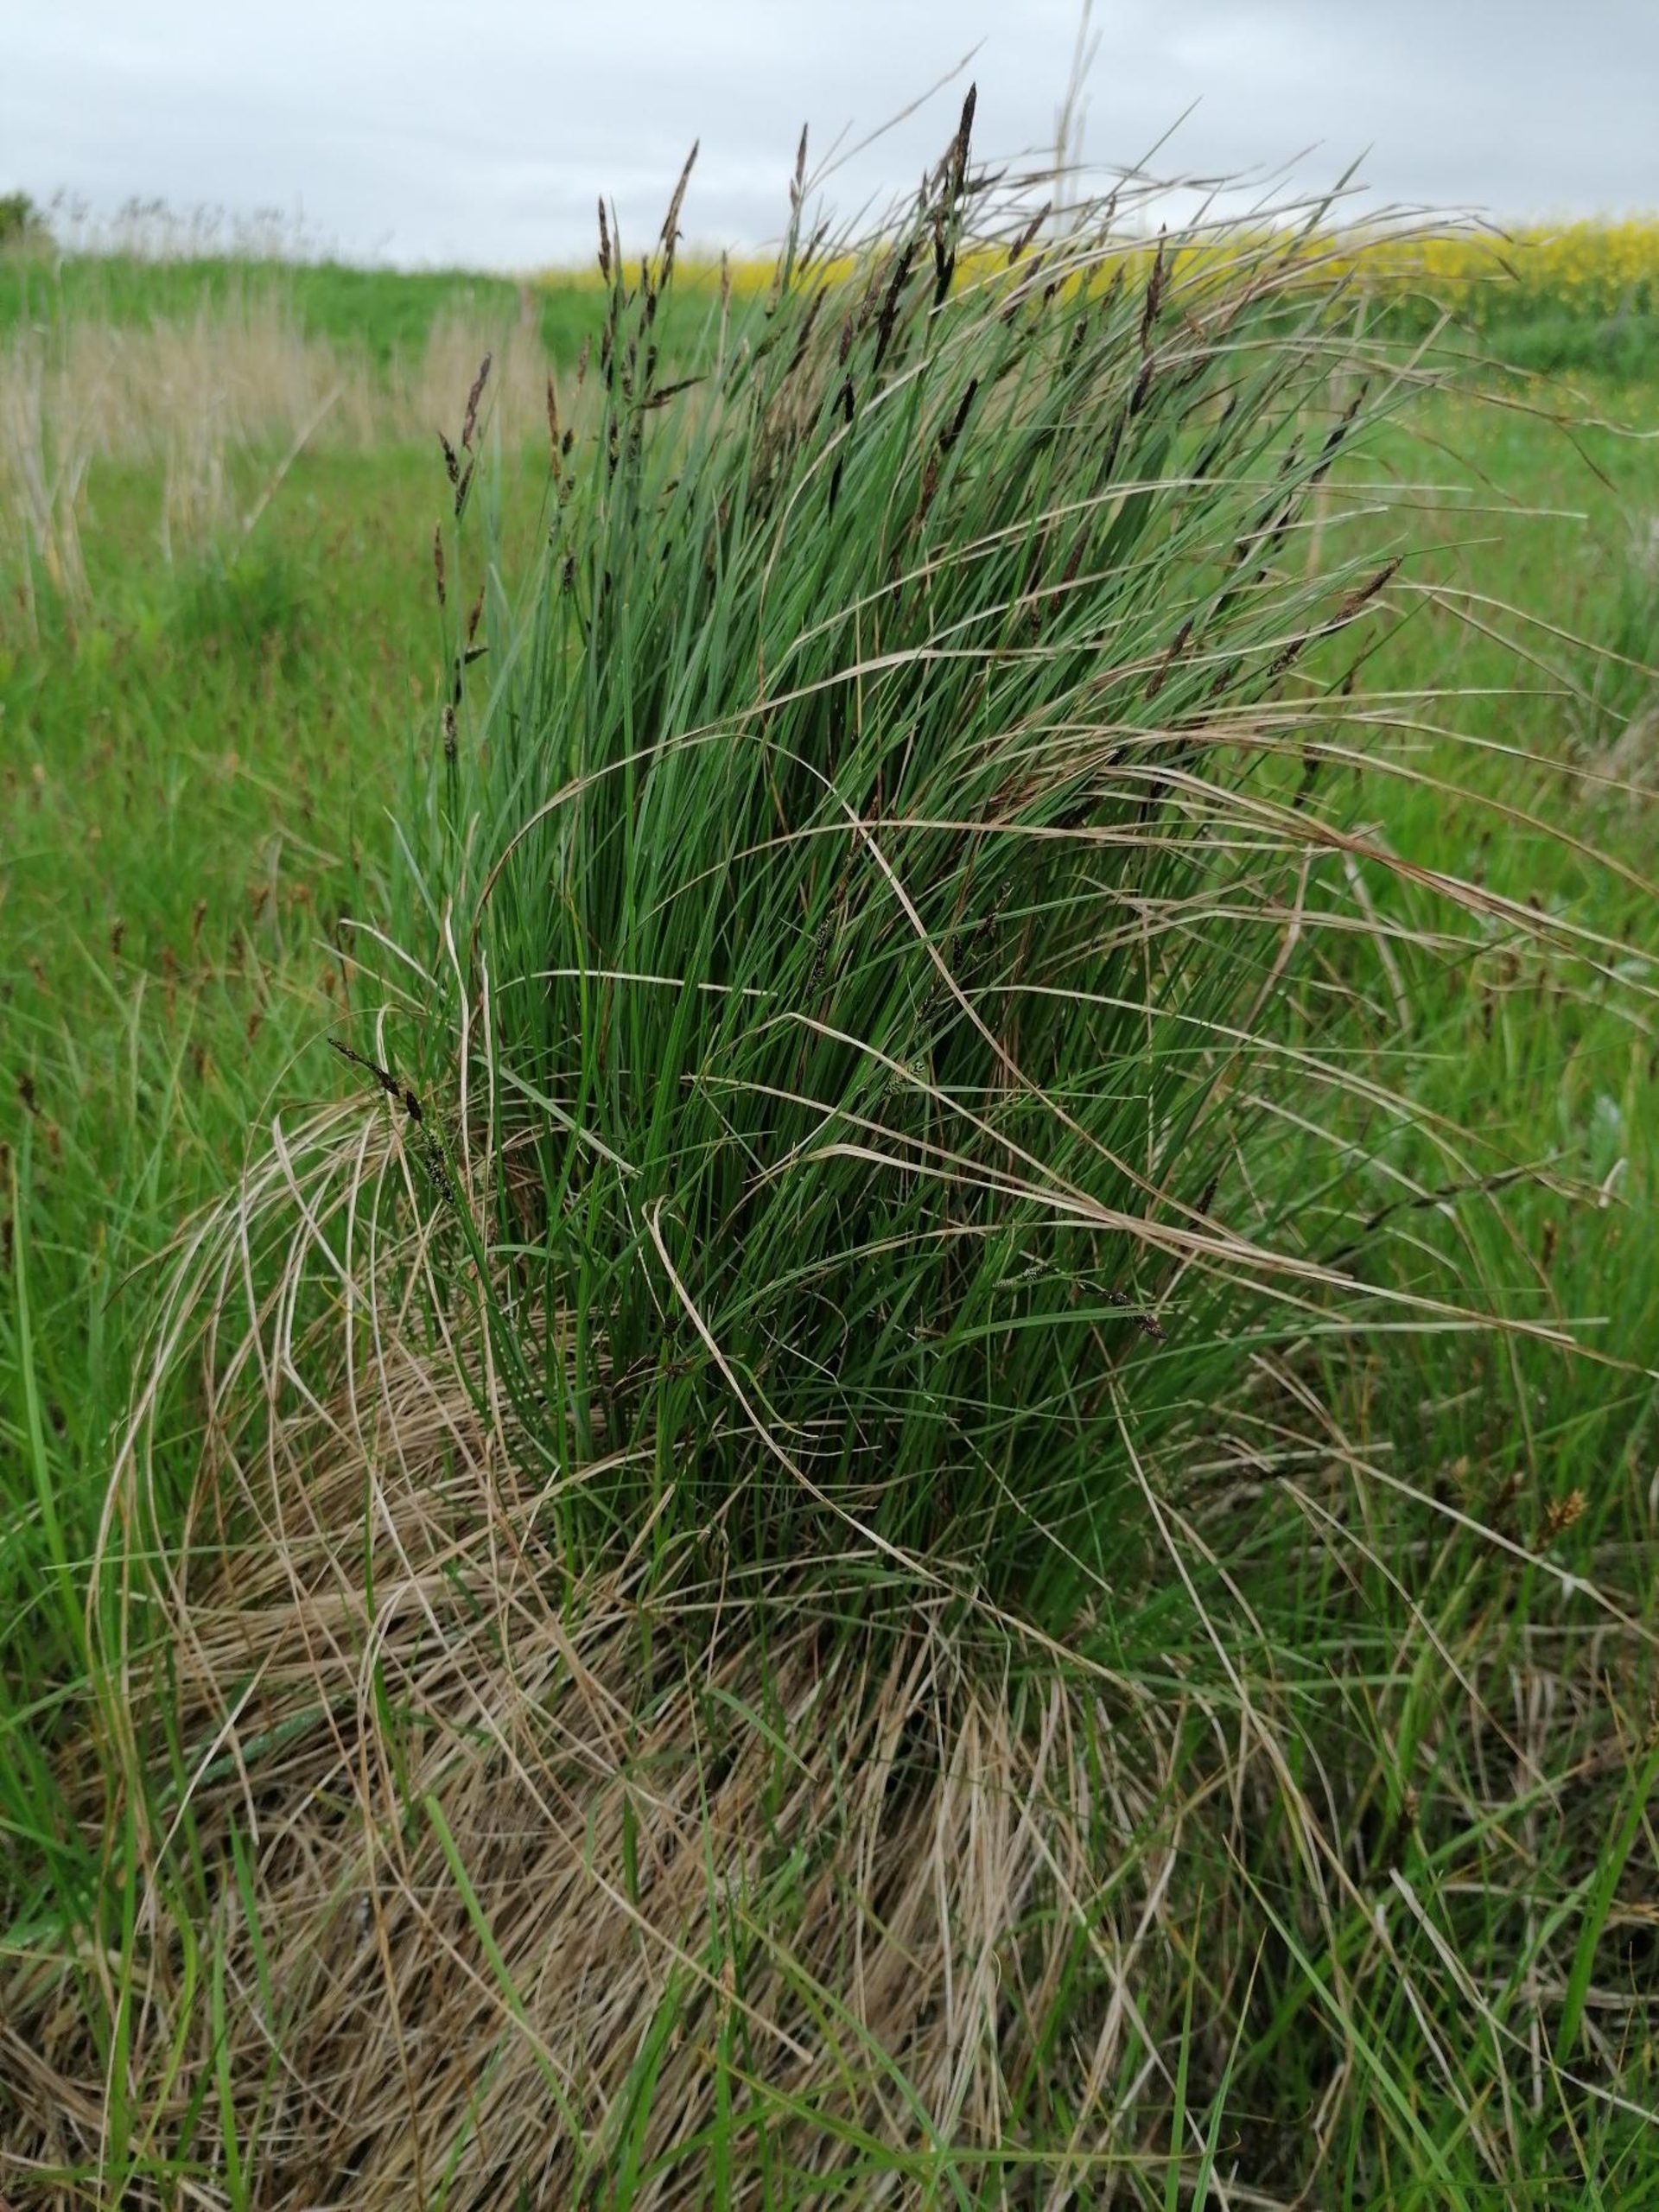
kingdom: Plantae
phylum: Tracheophyta
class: Liliopsida
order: Poales
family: Cyperaceae
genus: Carex
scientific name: Carex nigra
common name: Knold-star
